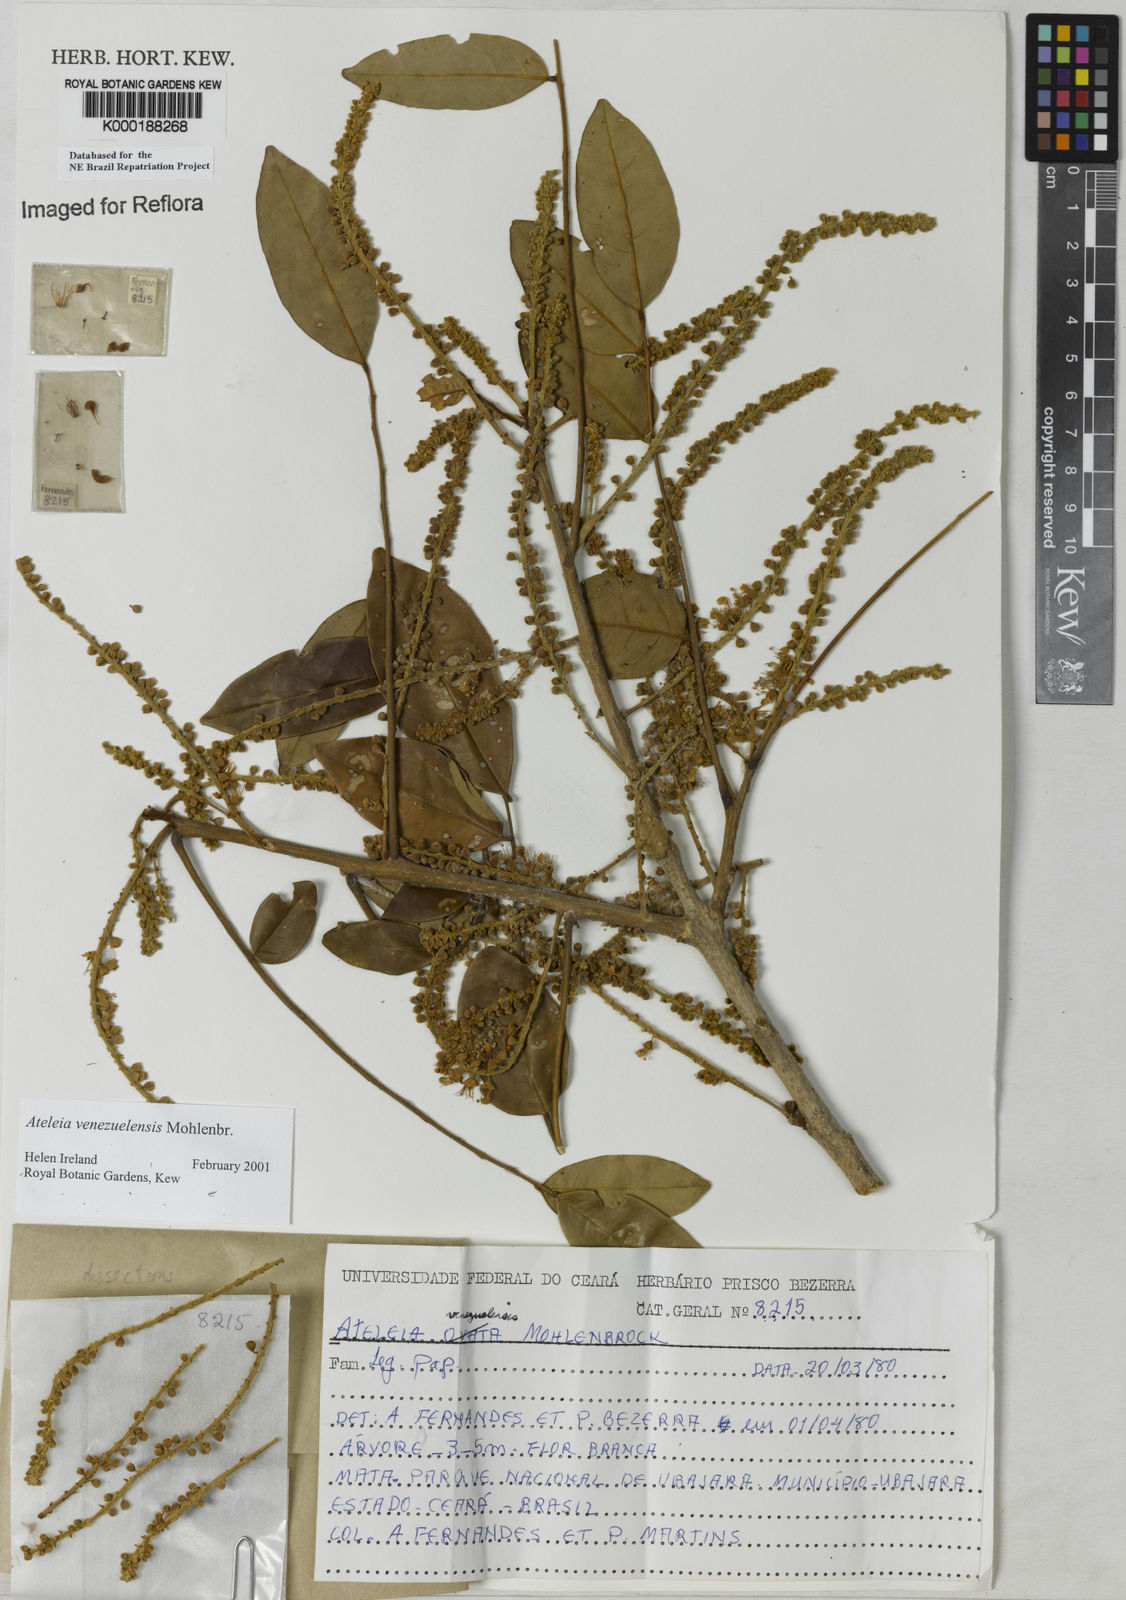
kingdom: Plantae
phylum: Tracheophyta
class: Magnoliopsida
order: Fabales
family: Fabaceae
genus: Ateleia
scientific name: Ateleia venezuelensis
